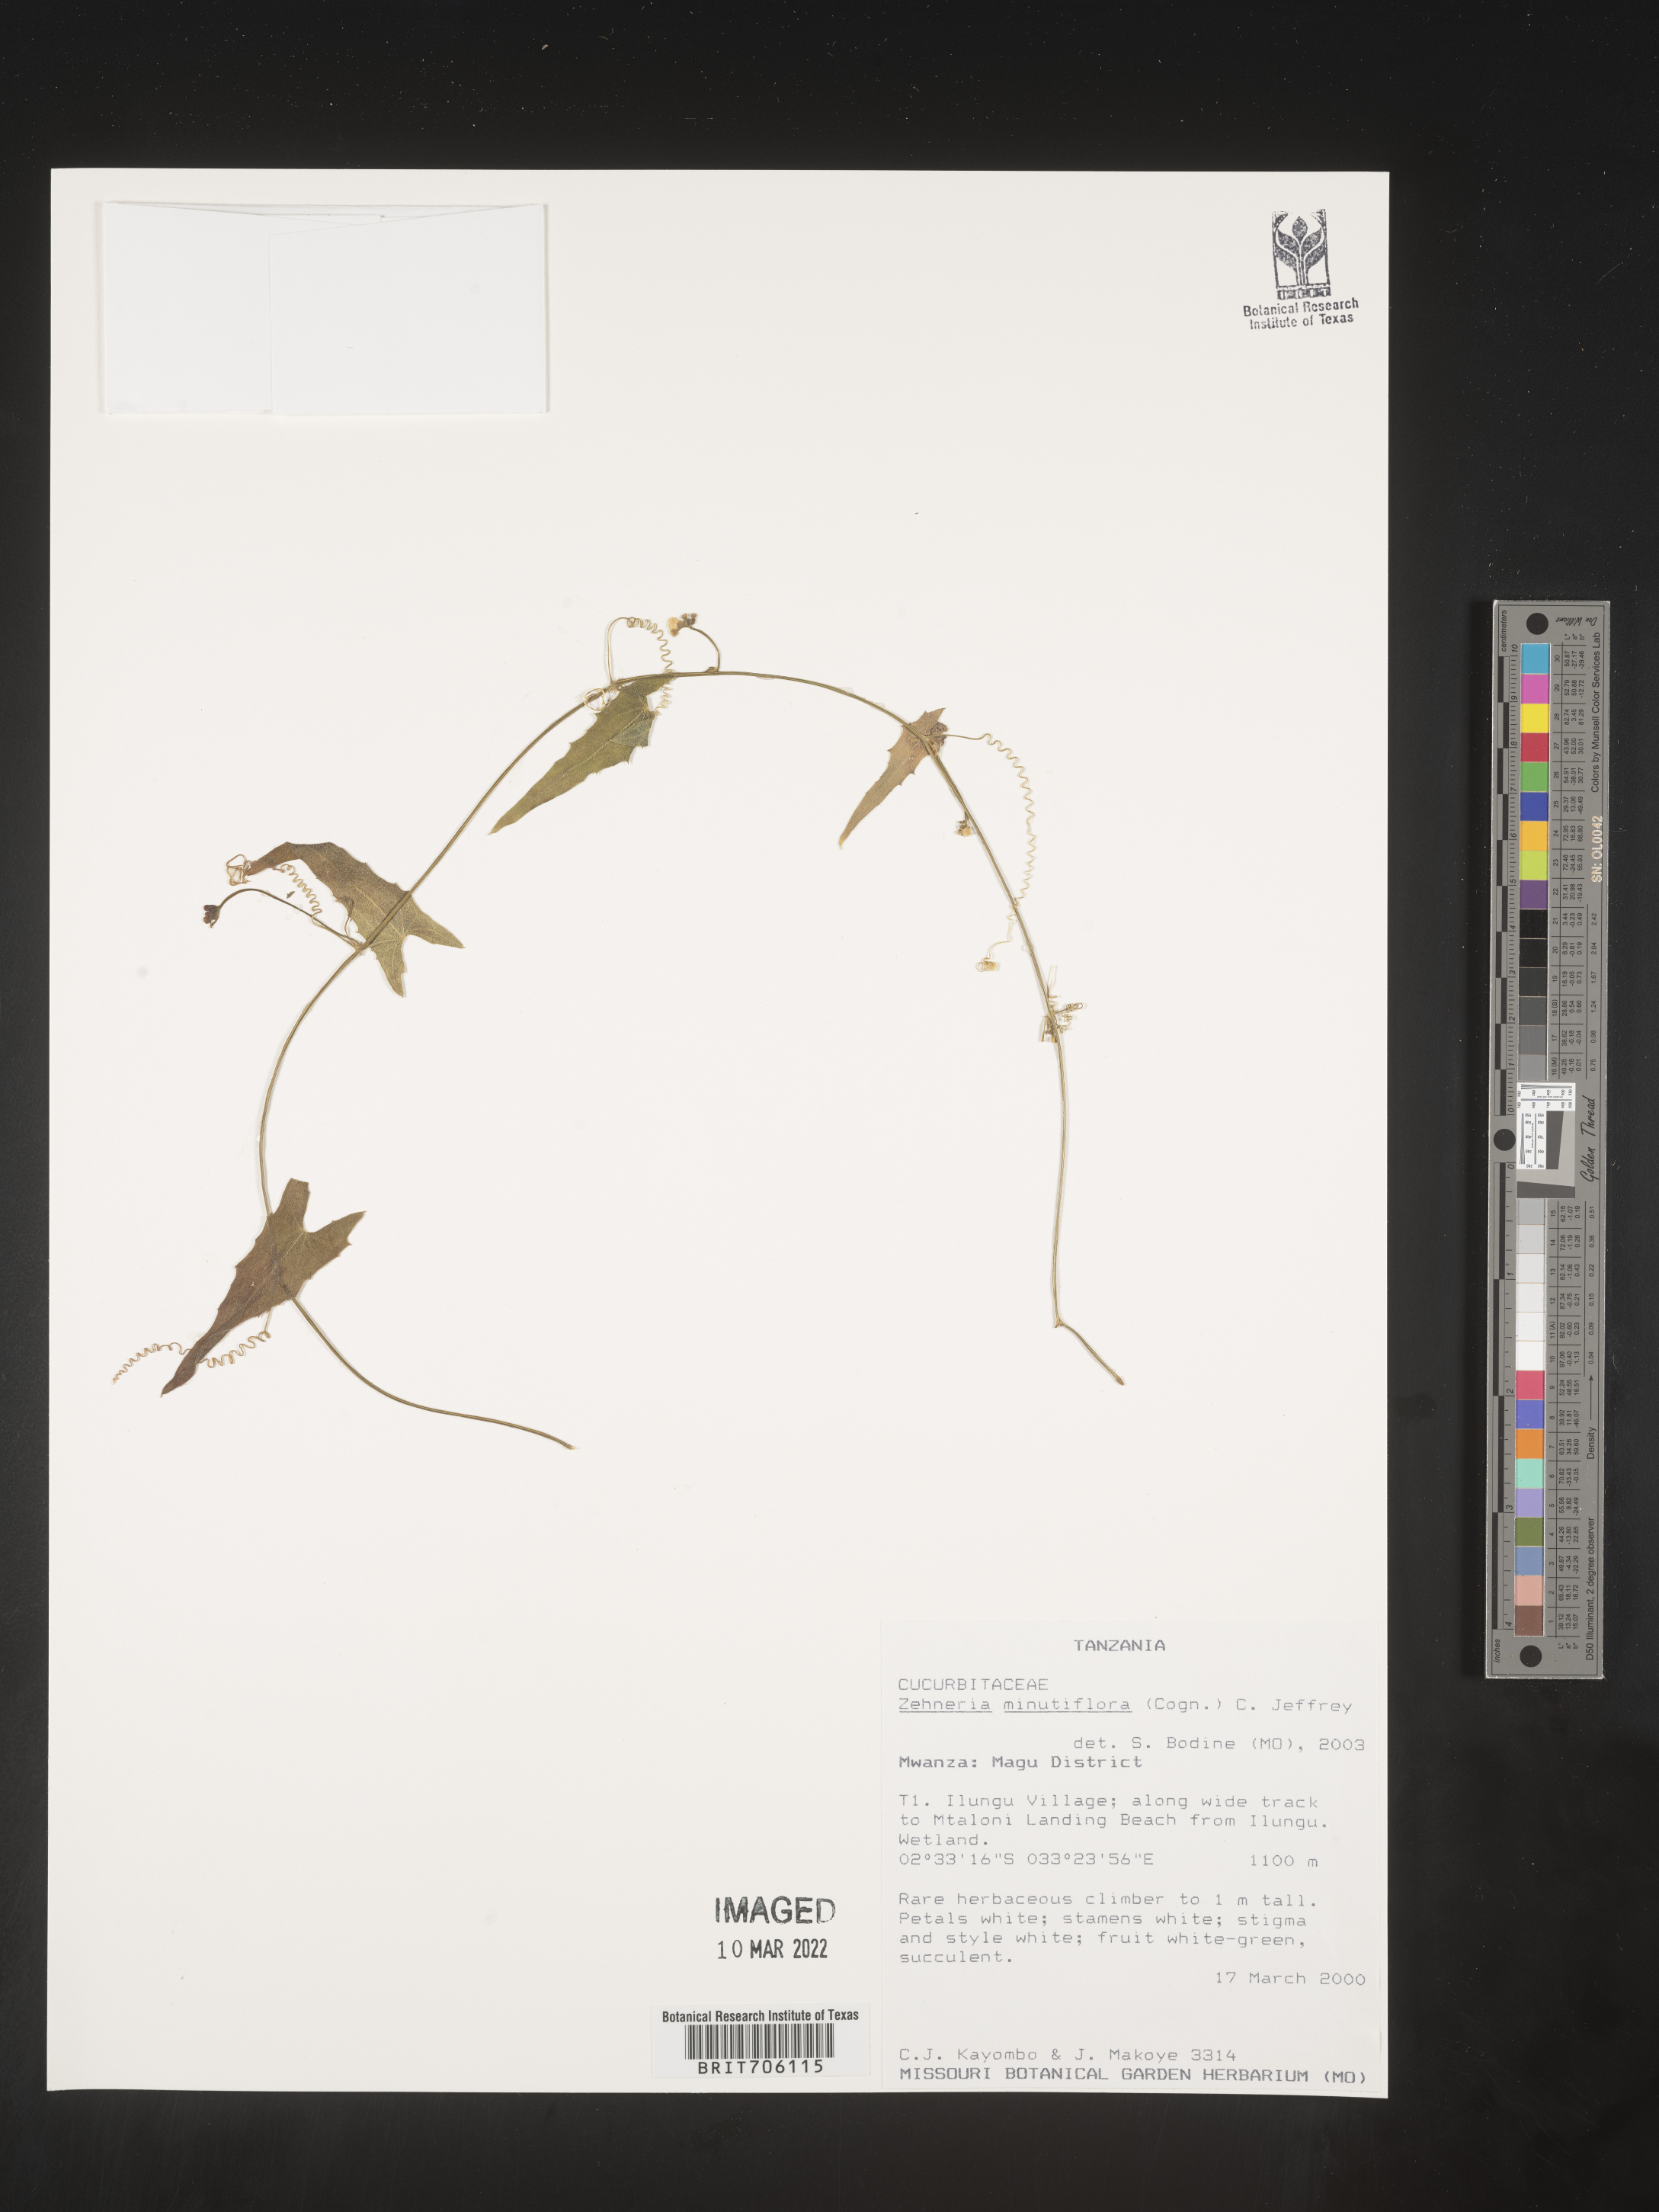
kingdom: Plantae
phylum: Tracheophyta
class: Magnoliopsida
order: Cucurbitales
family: Cucurbitaceae
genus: Zehneria
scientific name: Zehneria
